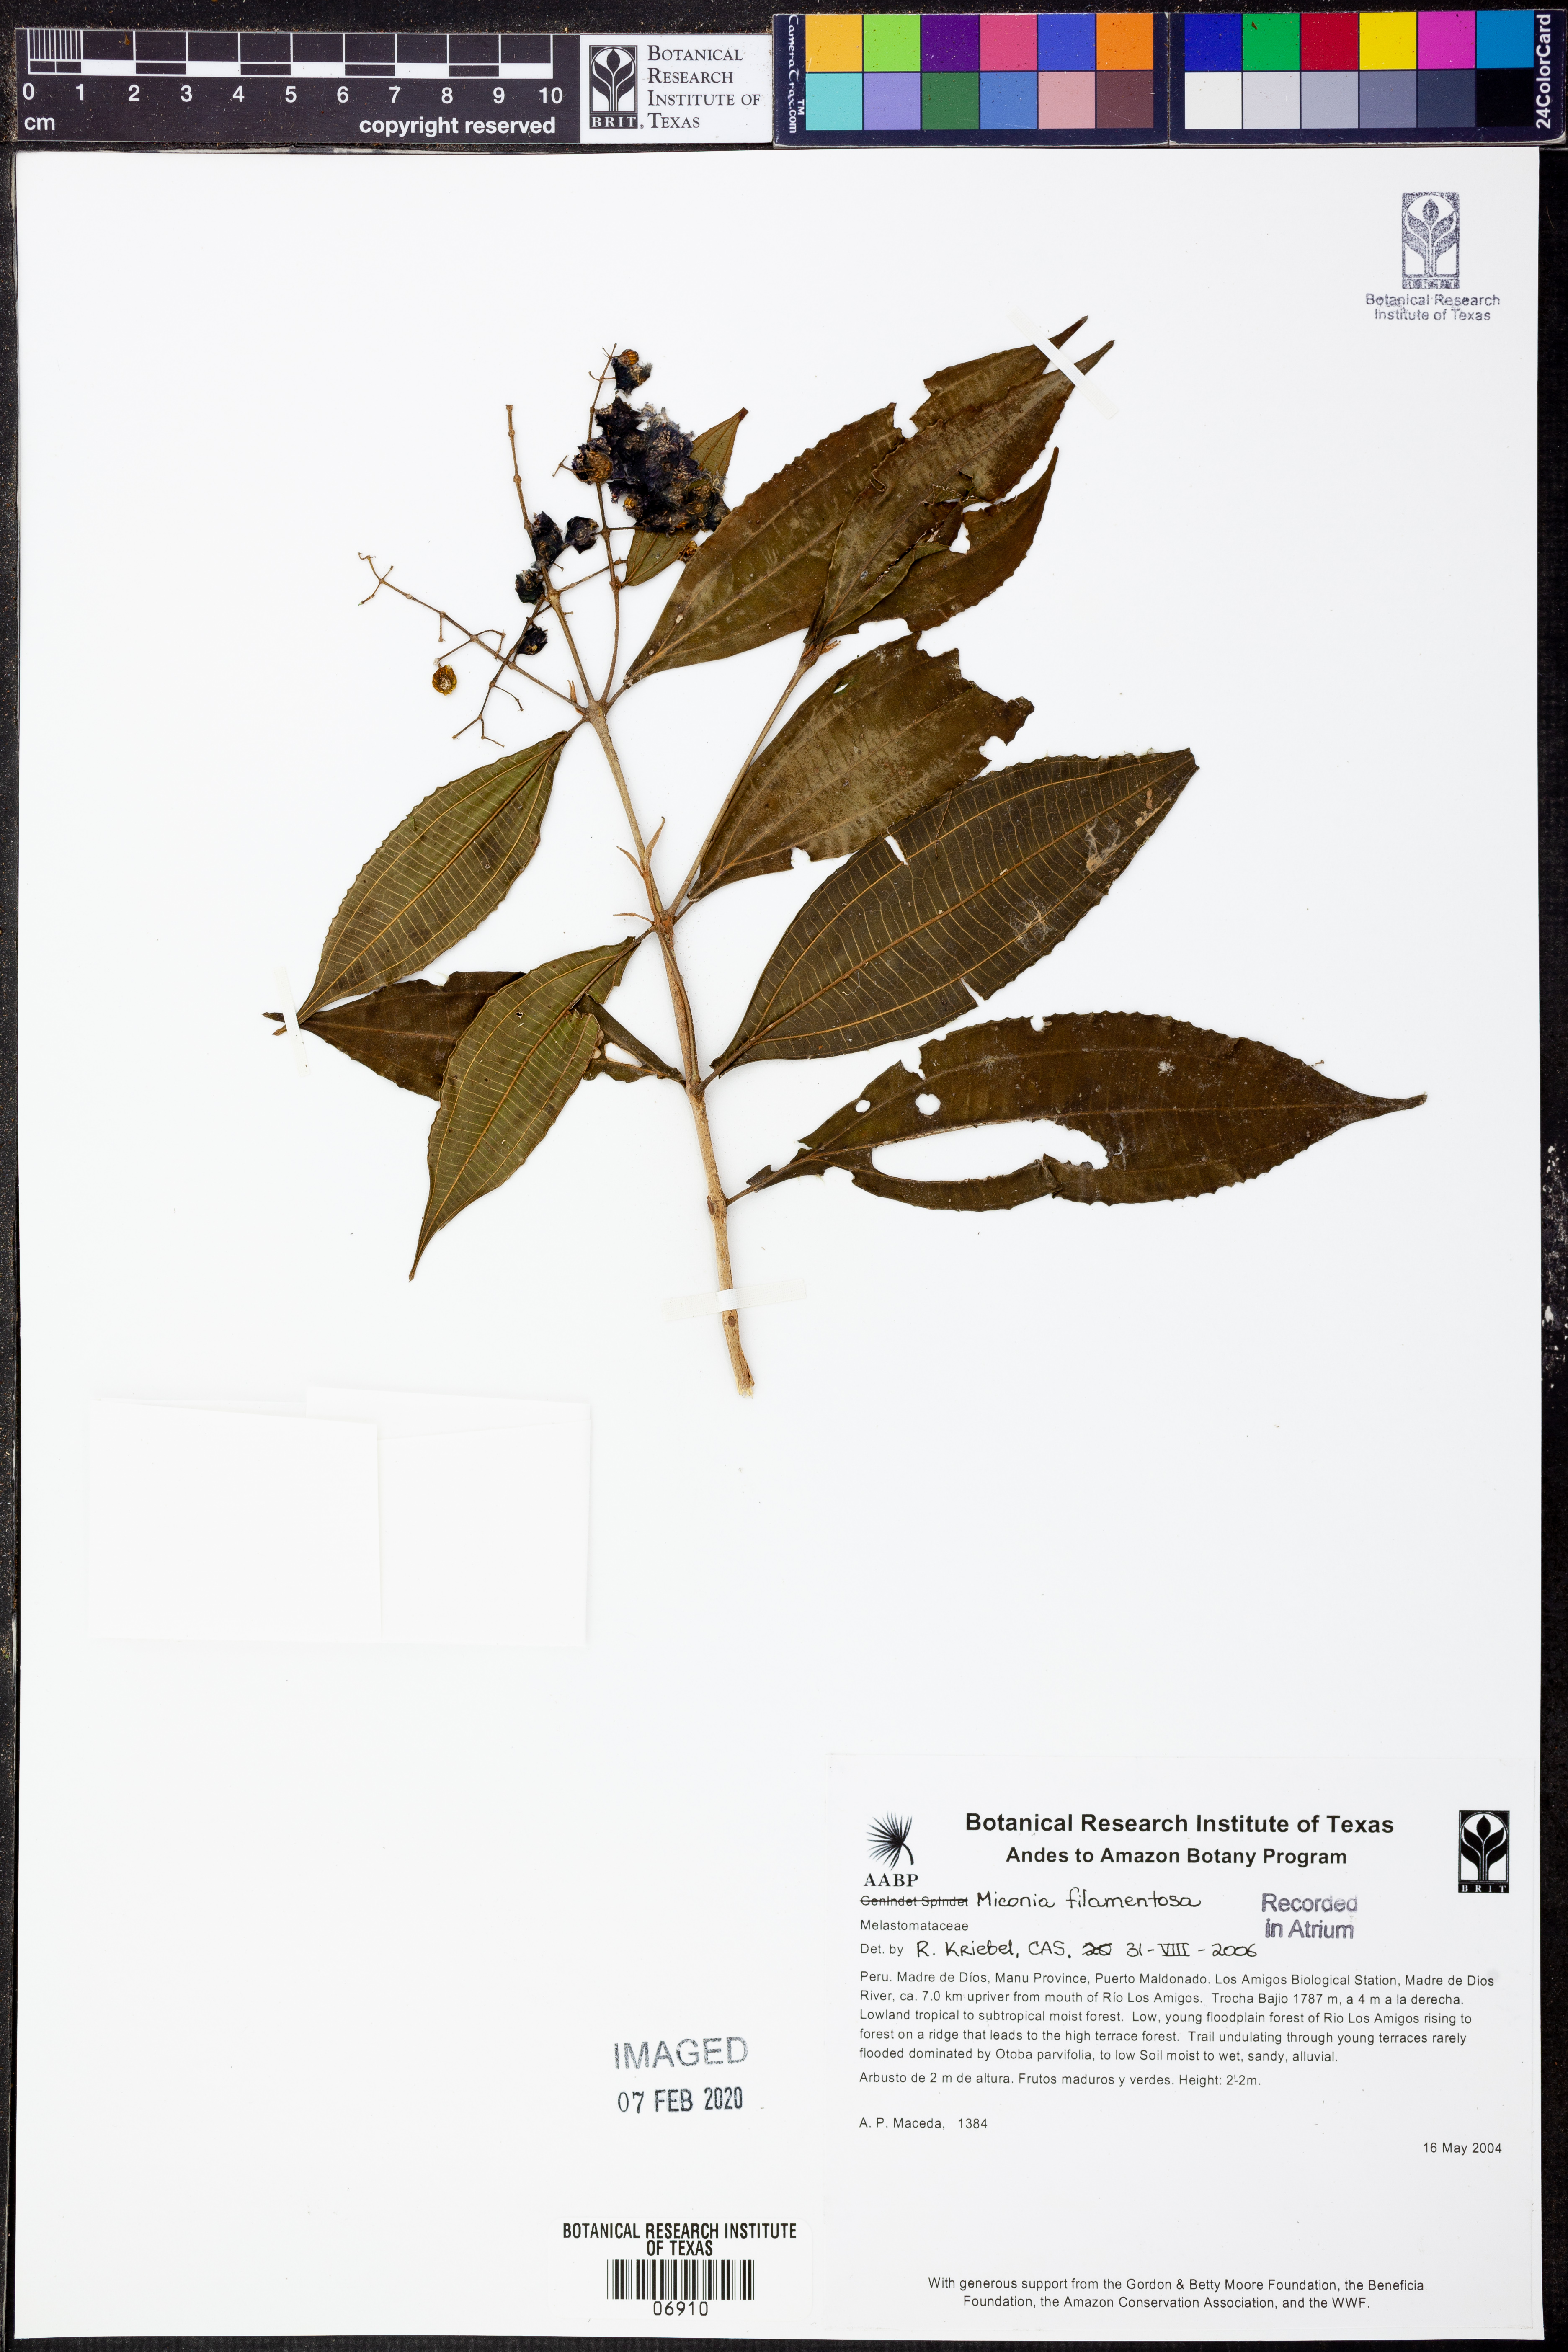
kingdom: Plantae
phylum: Tracheophyta
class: Magnoliopsida
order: Myrtales
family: Melastomataceae
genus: Miconia
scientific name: Miconia filamentosa
